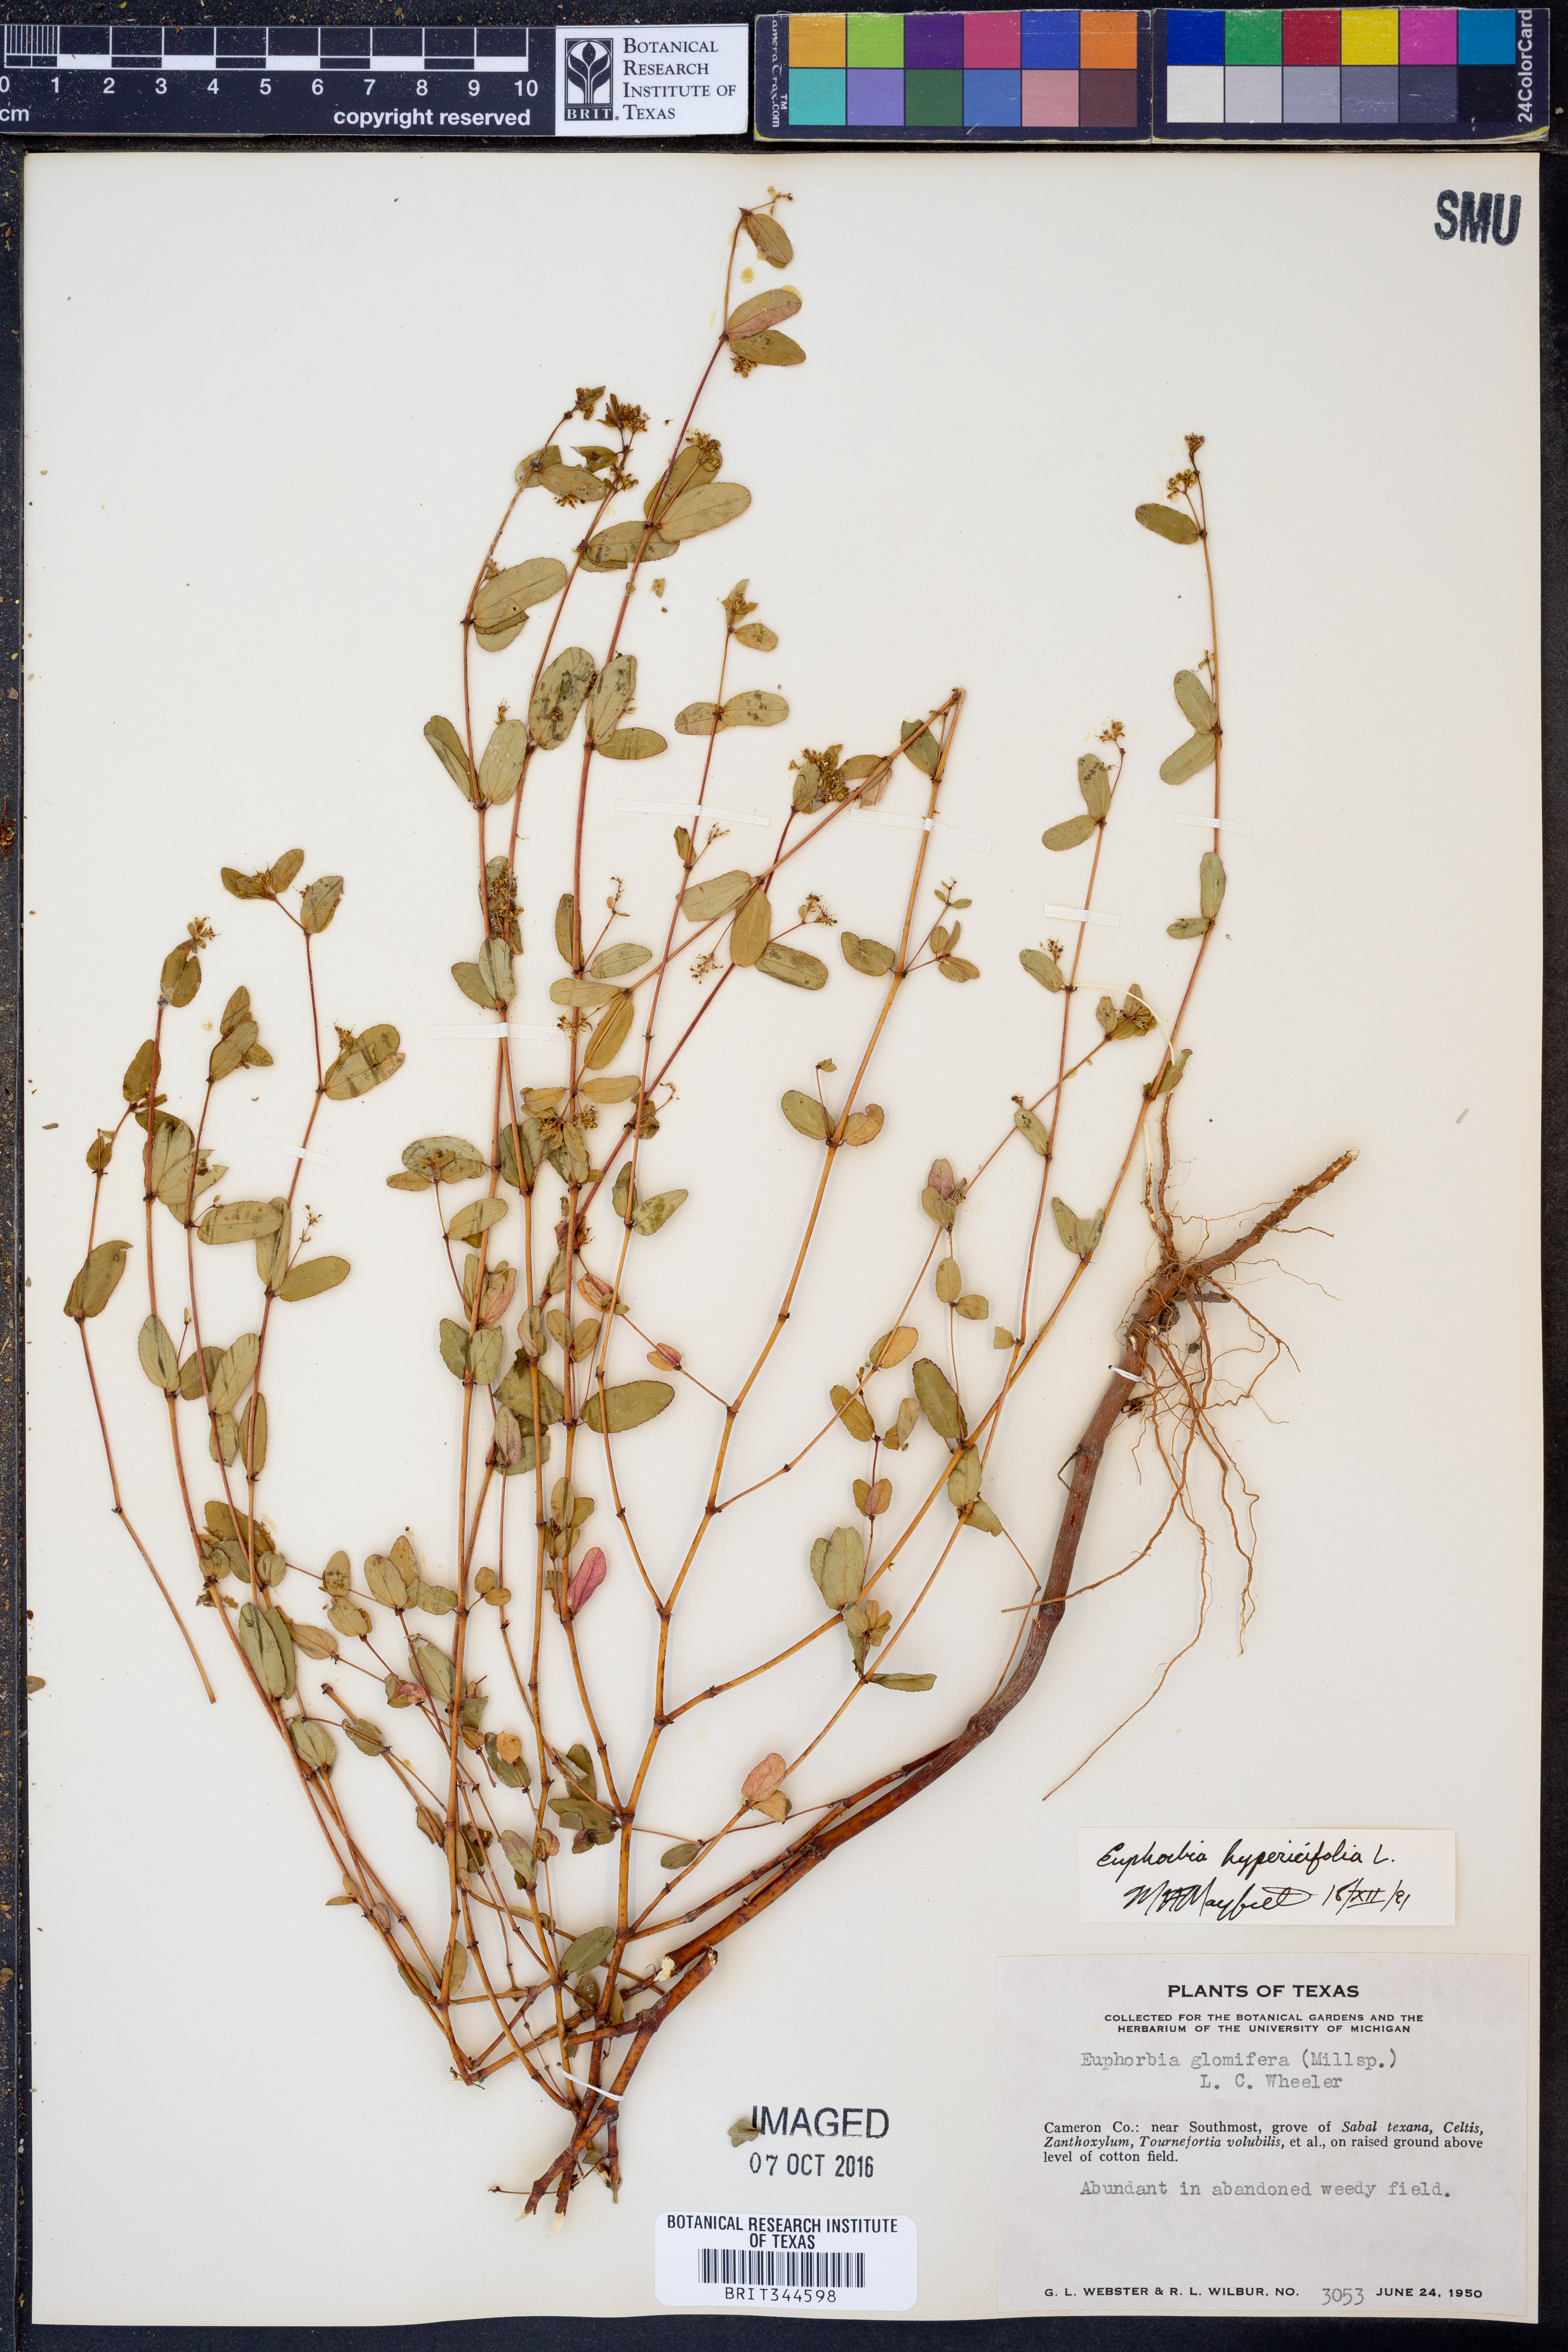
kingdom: Plantae
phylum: Tracheophyta
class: Magnoliopsida
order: Malpighiales
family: Euphorbiaceae
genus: Euphorbia
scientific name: Euphorbia hypericifolia
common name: Graceful sandmat
